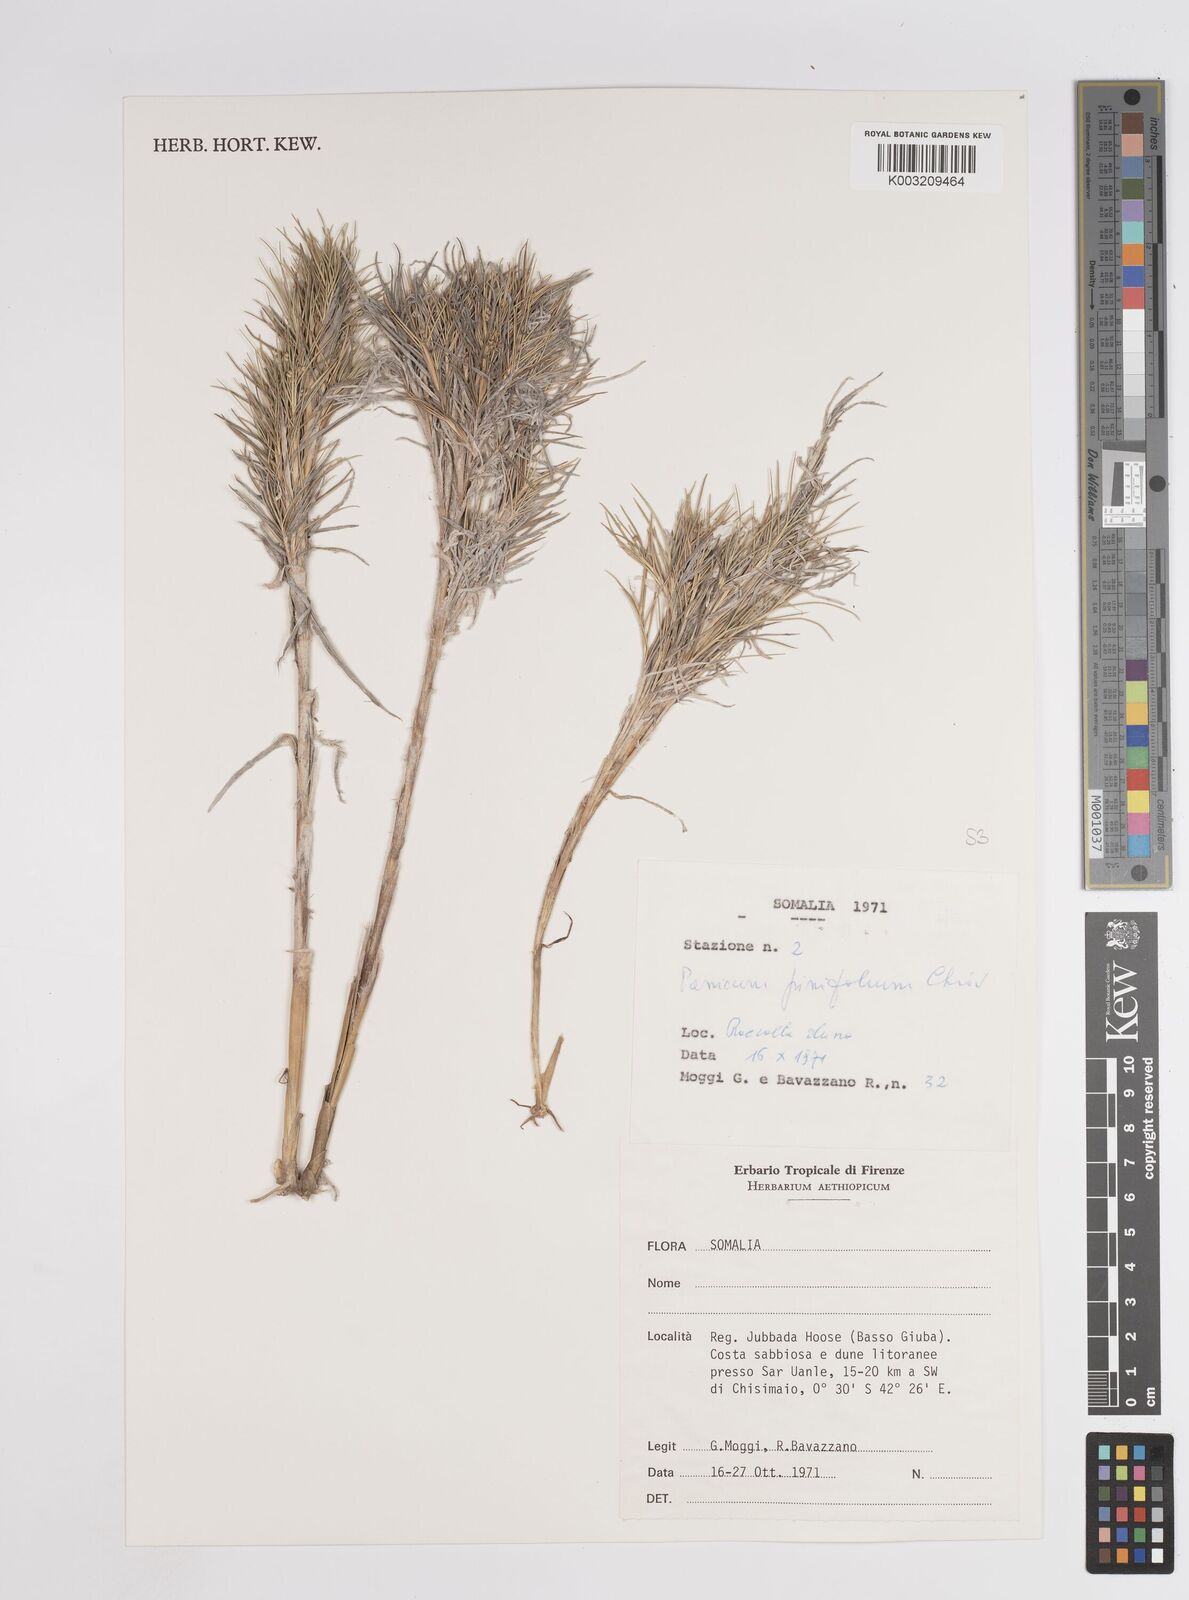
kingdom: Plantae
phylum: Tracheophyta
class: Liliopsida
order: Poales
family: Poaceae
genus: Panicum
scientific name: Panicum pinifolium
